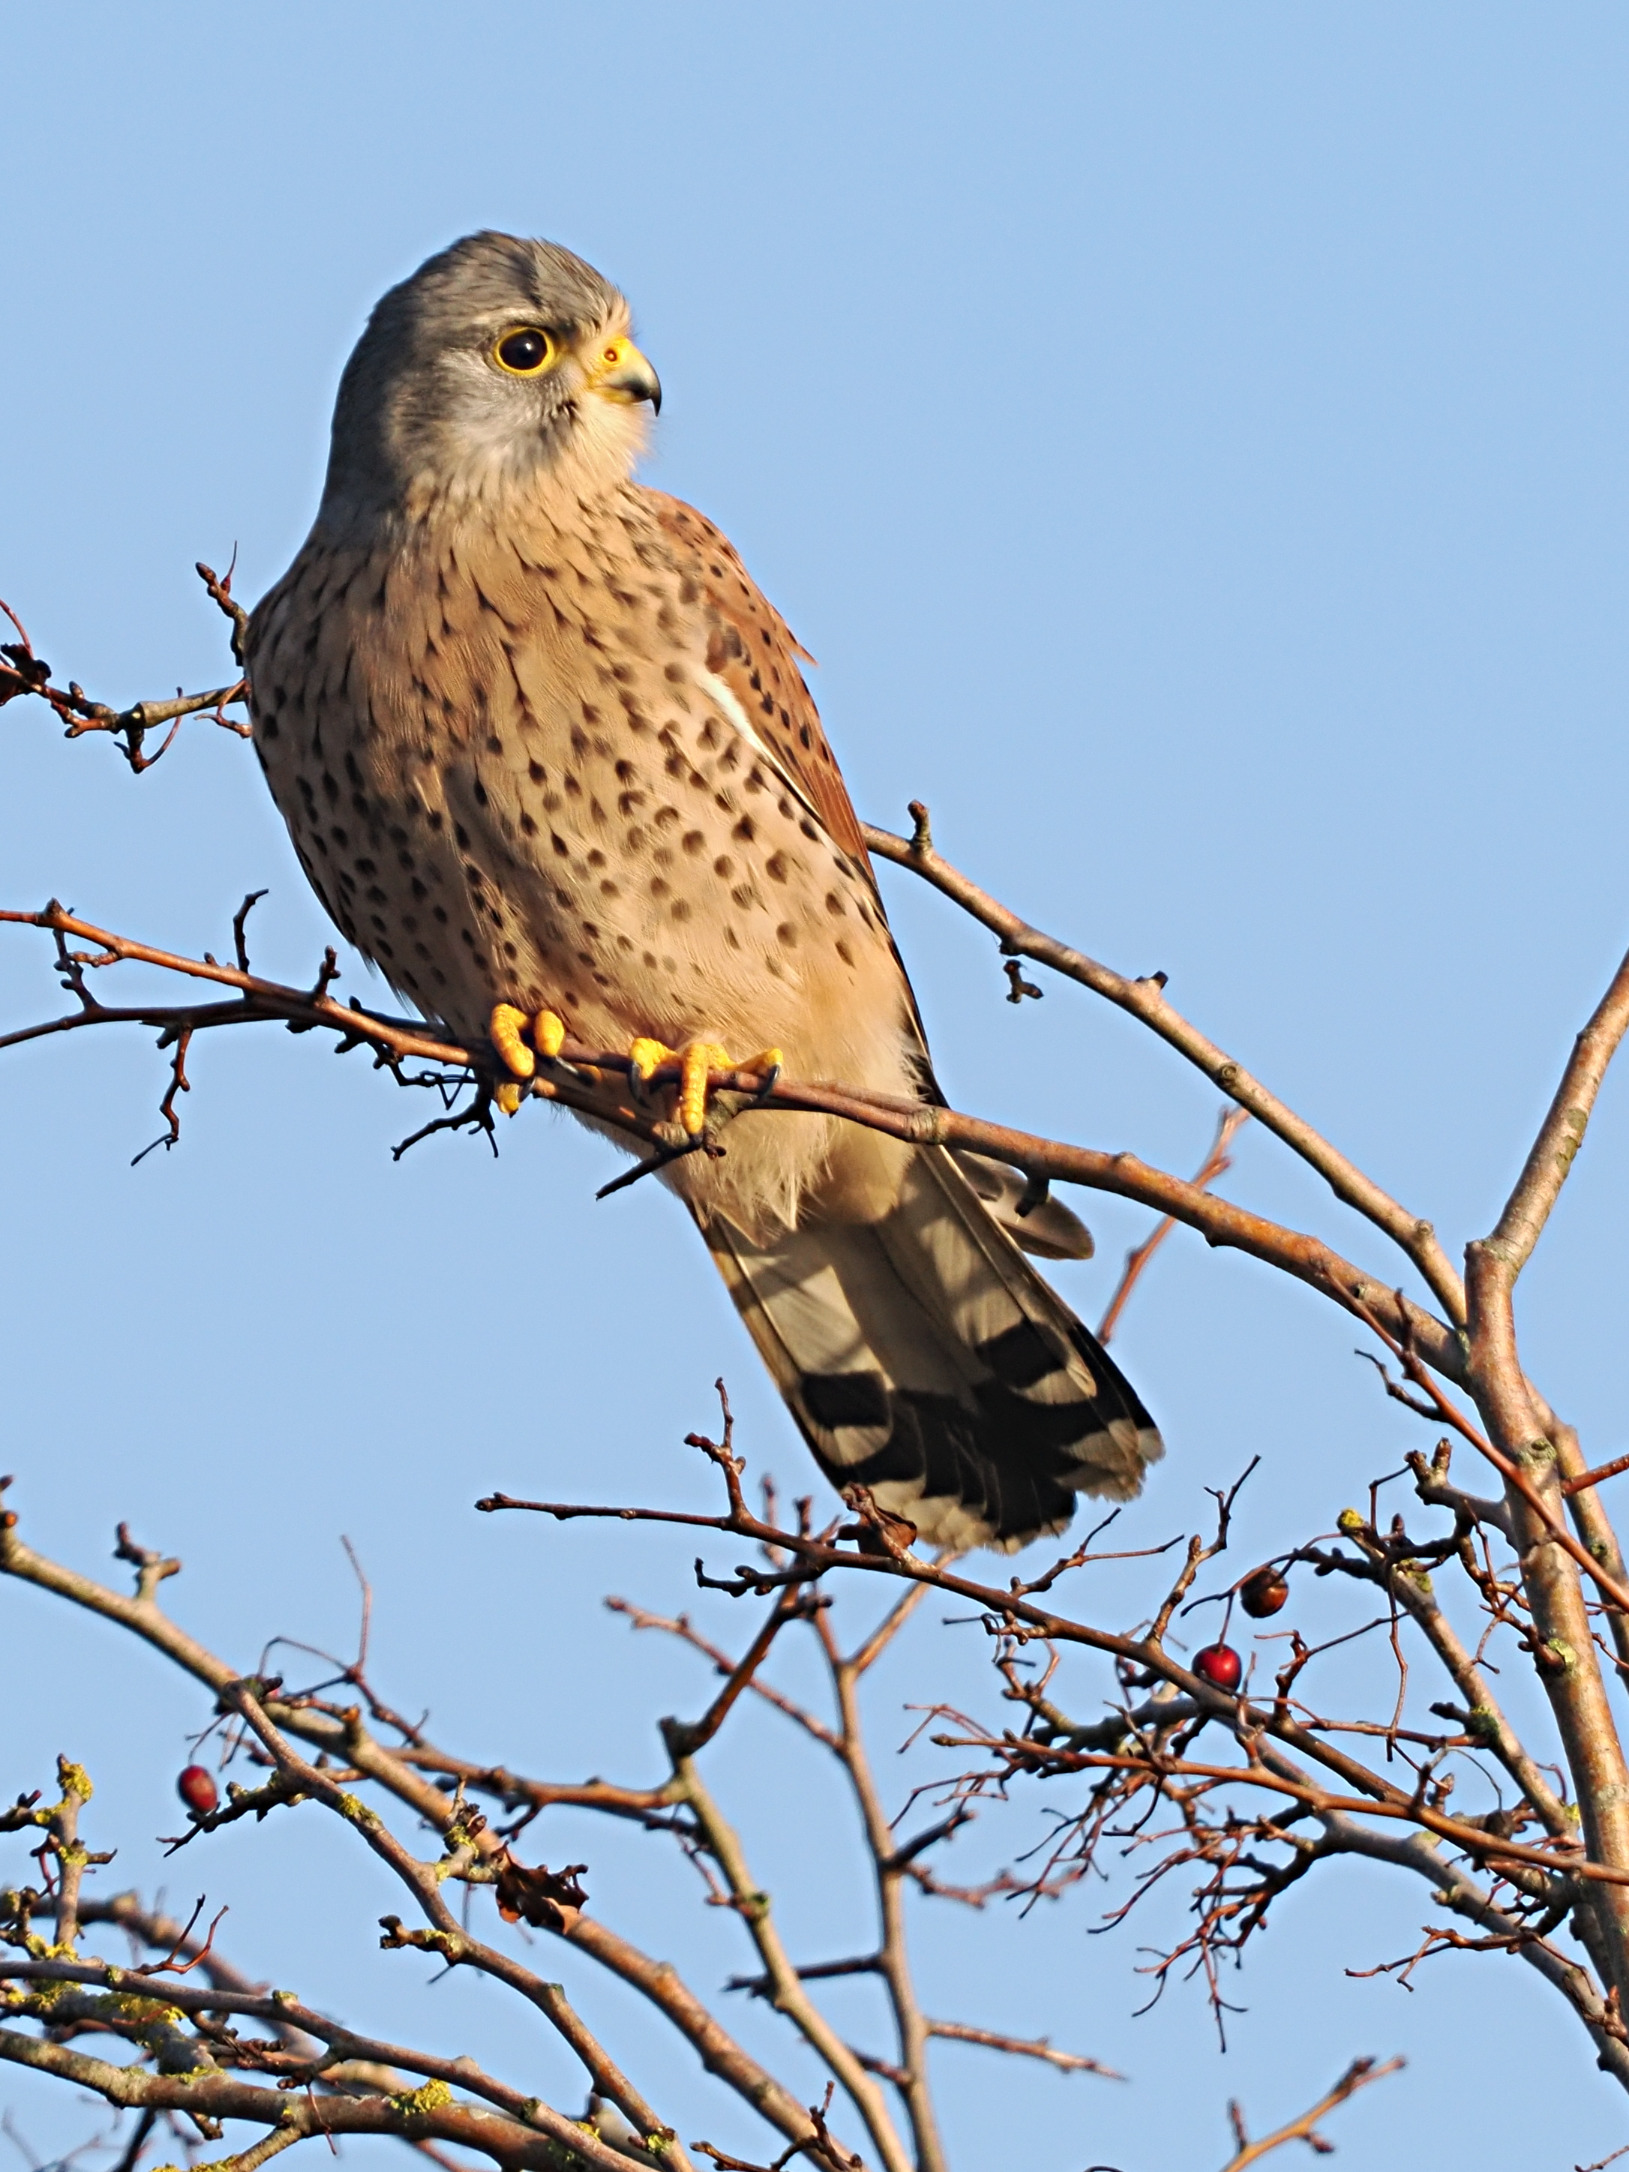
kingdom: Animalia
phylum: Chordata
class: Aves
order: Falconiformes
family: Falconidae
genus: Falco
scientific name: Falco tinnunculus
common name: Tårnfalk
